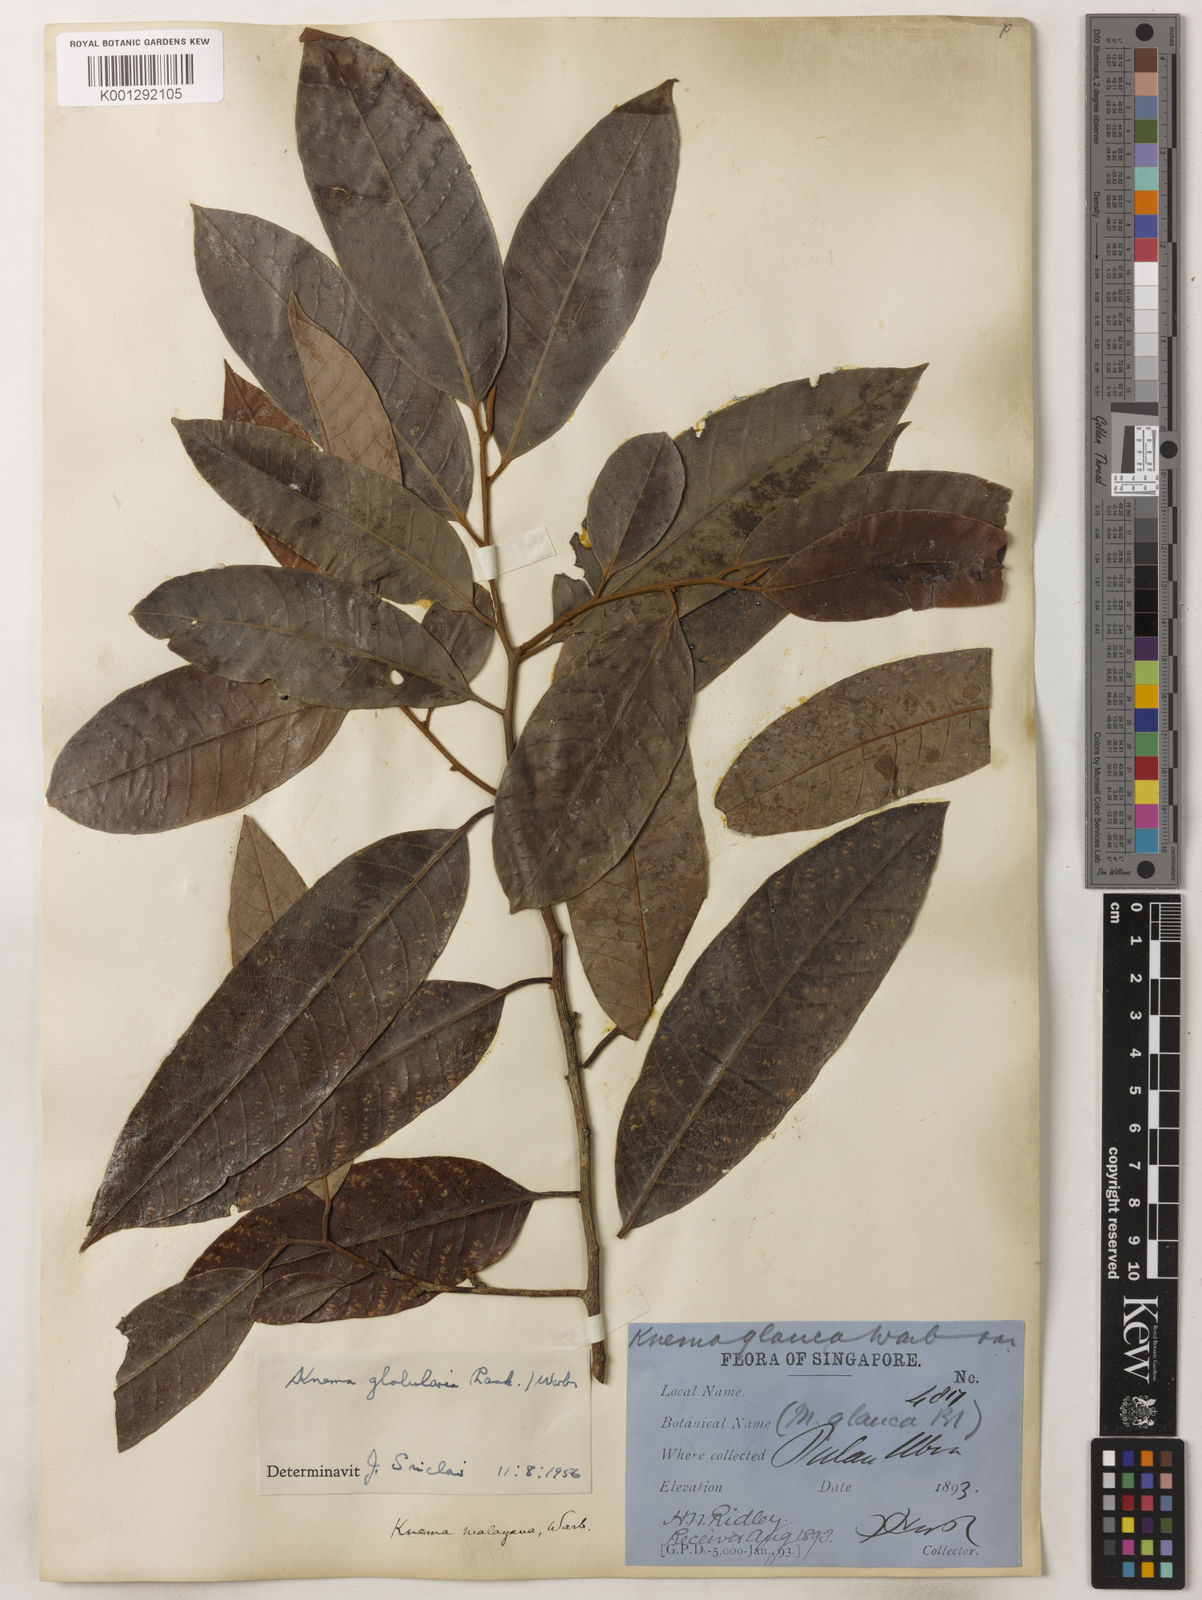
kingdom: Plantae
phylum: Tracheophyta
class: Magnoliopsida
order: Magnoliales
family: Myristicaceae
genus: Knema
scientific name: Knema globularia
